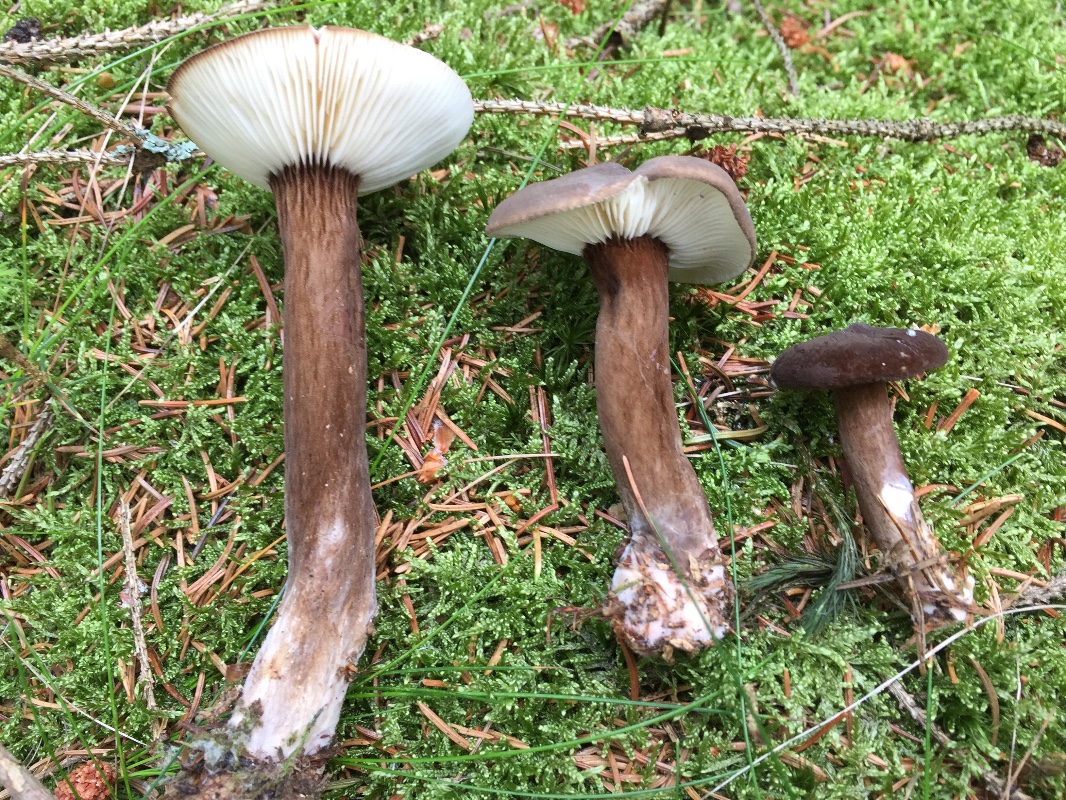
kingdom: Fungi
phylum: Basidiomycota
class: Agaricomycetes
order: Russulales
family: Russulaceae
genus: Lactarius
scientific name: Lactarius lignyotus
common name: fløjls-mælkehat
